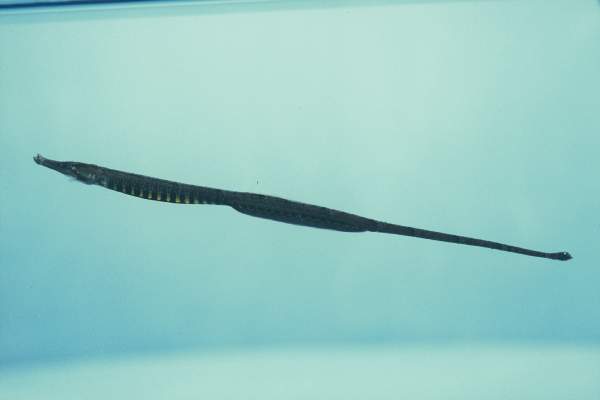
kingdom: Animalia
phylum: Chordata
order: Syngnathiformes
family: Syngnathidae
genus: Hippichthys
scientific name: Hippichthys spicifer
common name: Banded freshwater pipefish
